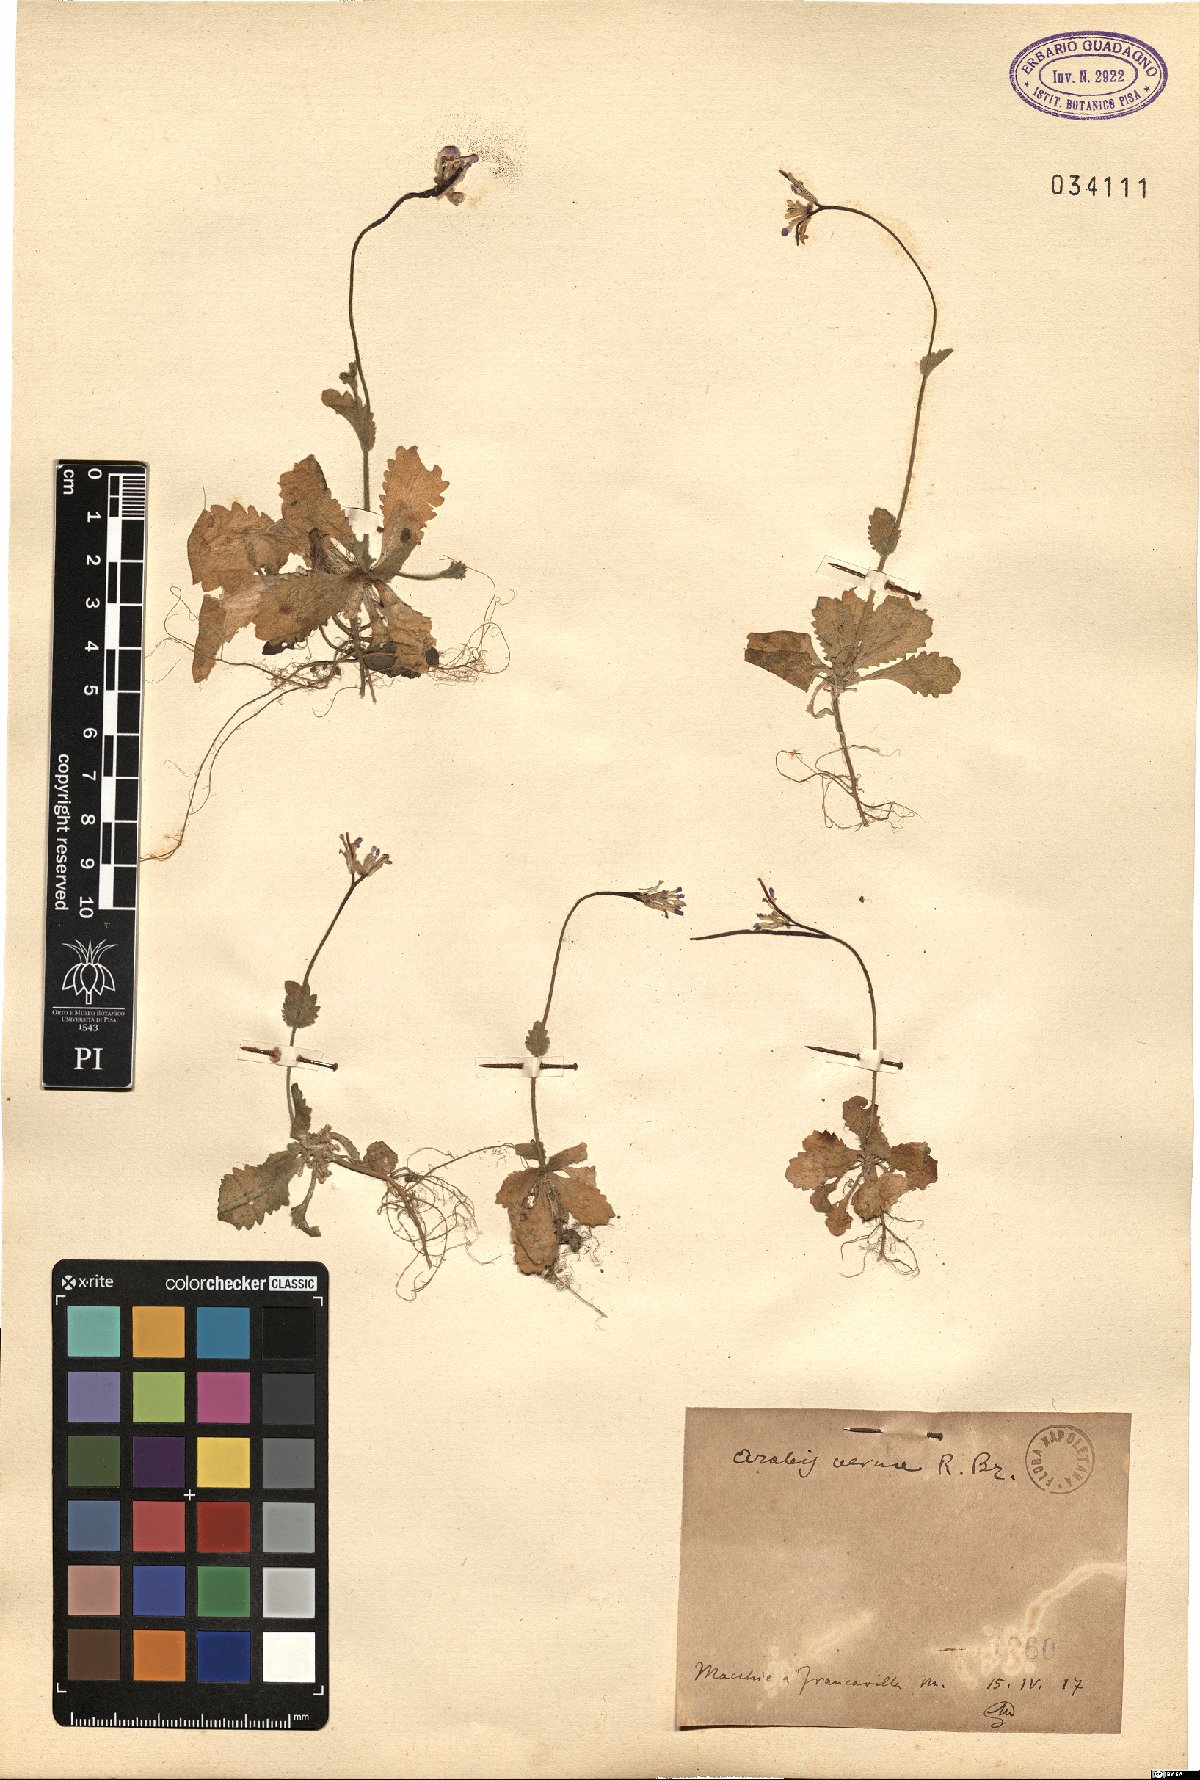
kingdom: Plantae
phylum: Tracheophyta
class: Magnoliopsida
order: Brassicales
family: Brassicaceae
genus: Arabis
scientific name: Arabis verna
